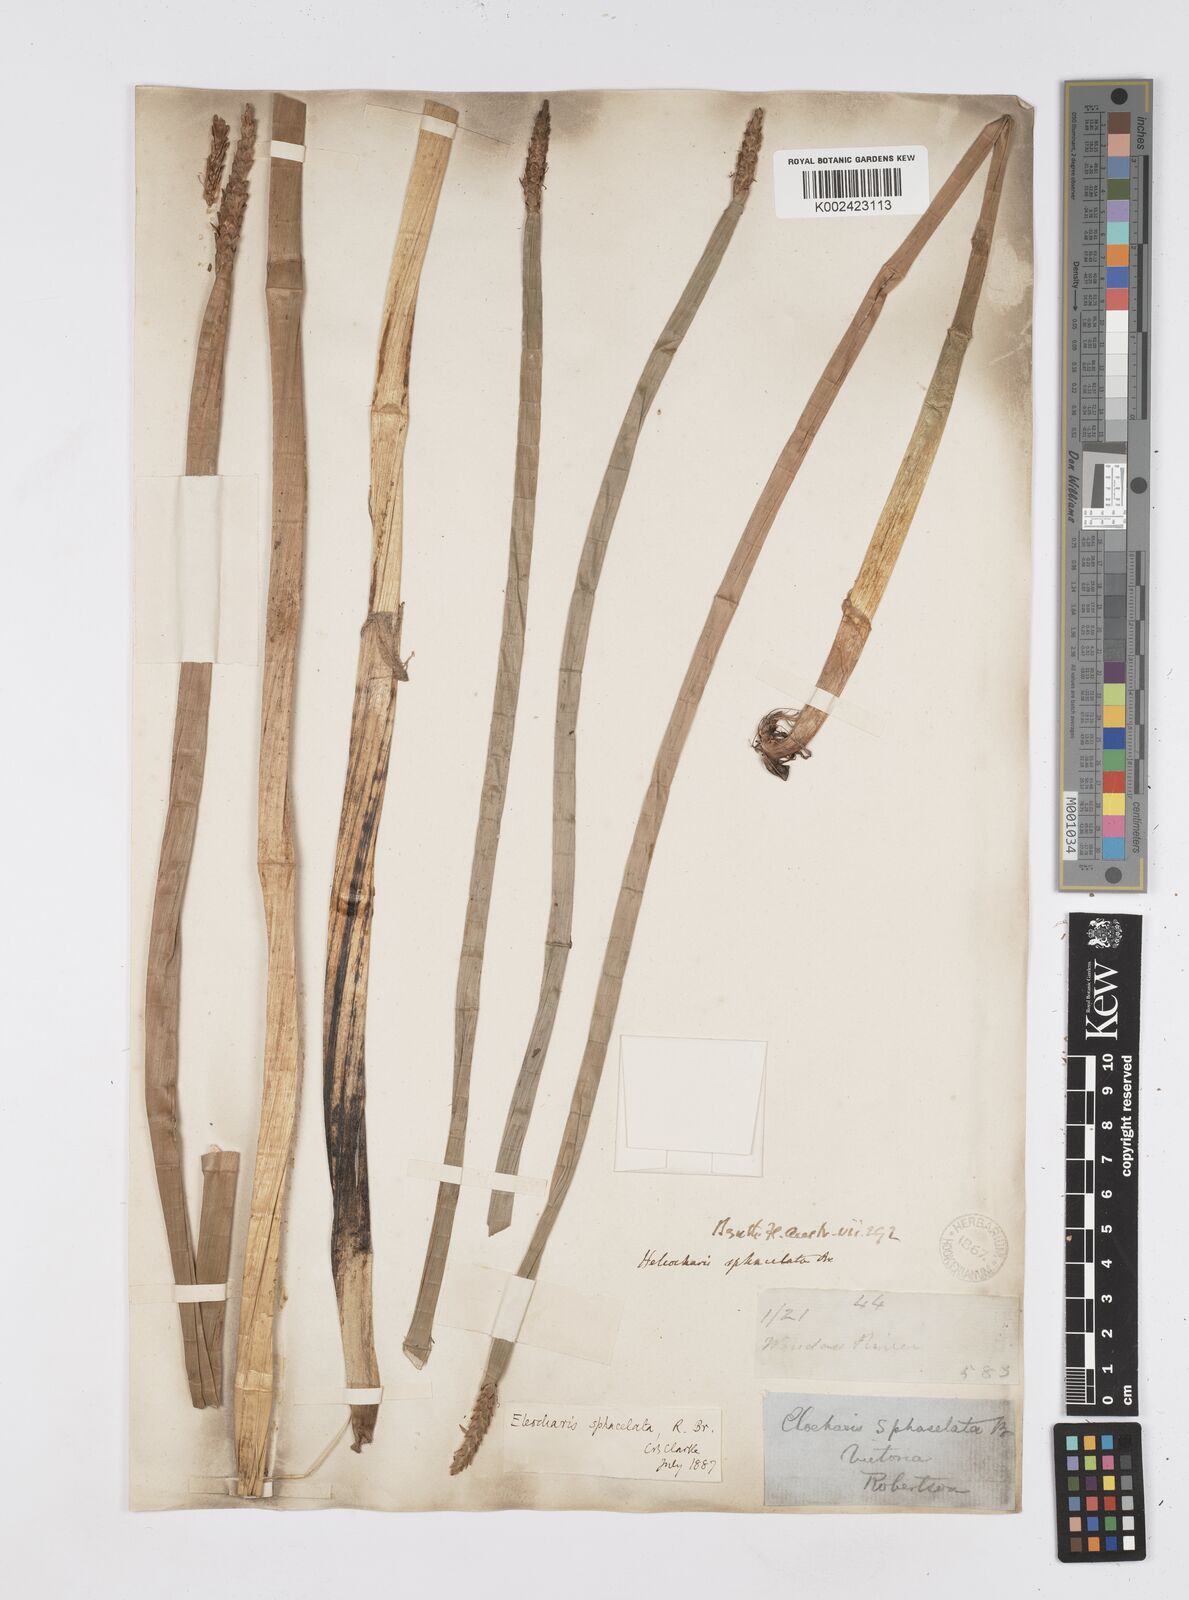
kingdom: Plantae
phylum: Tracheophyta
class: Liliopsida
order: Poales
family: Cyperaceae
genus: Eleocharis
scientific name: Eleocharis sphacelata
